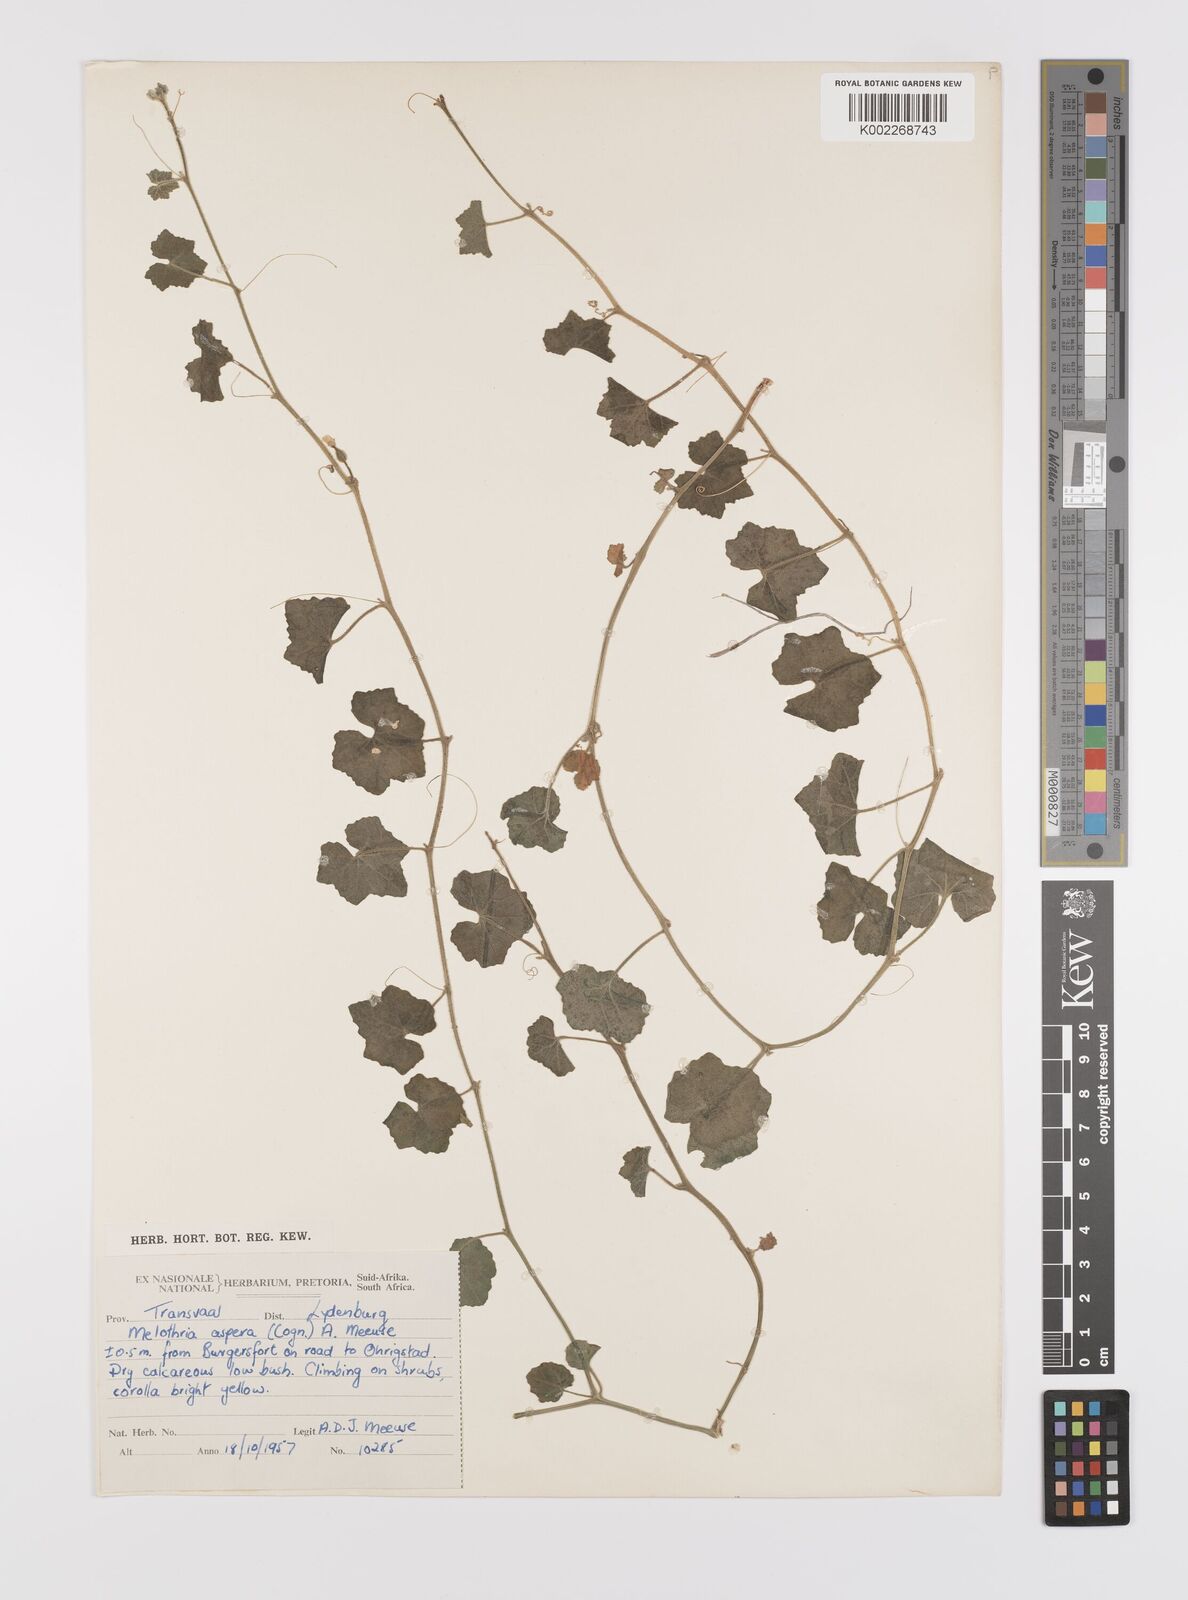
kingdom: Plantae
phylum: Tracheophyta
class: Magnoliopsida
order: Cucurbitales
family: Cucurbitaceae
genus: Cucumis
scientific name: Cucumis cinereus
